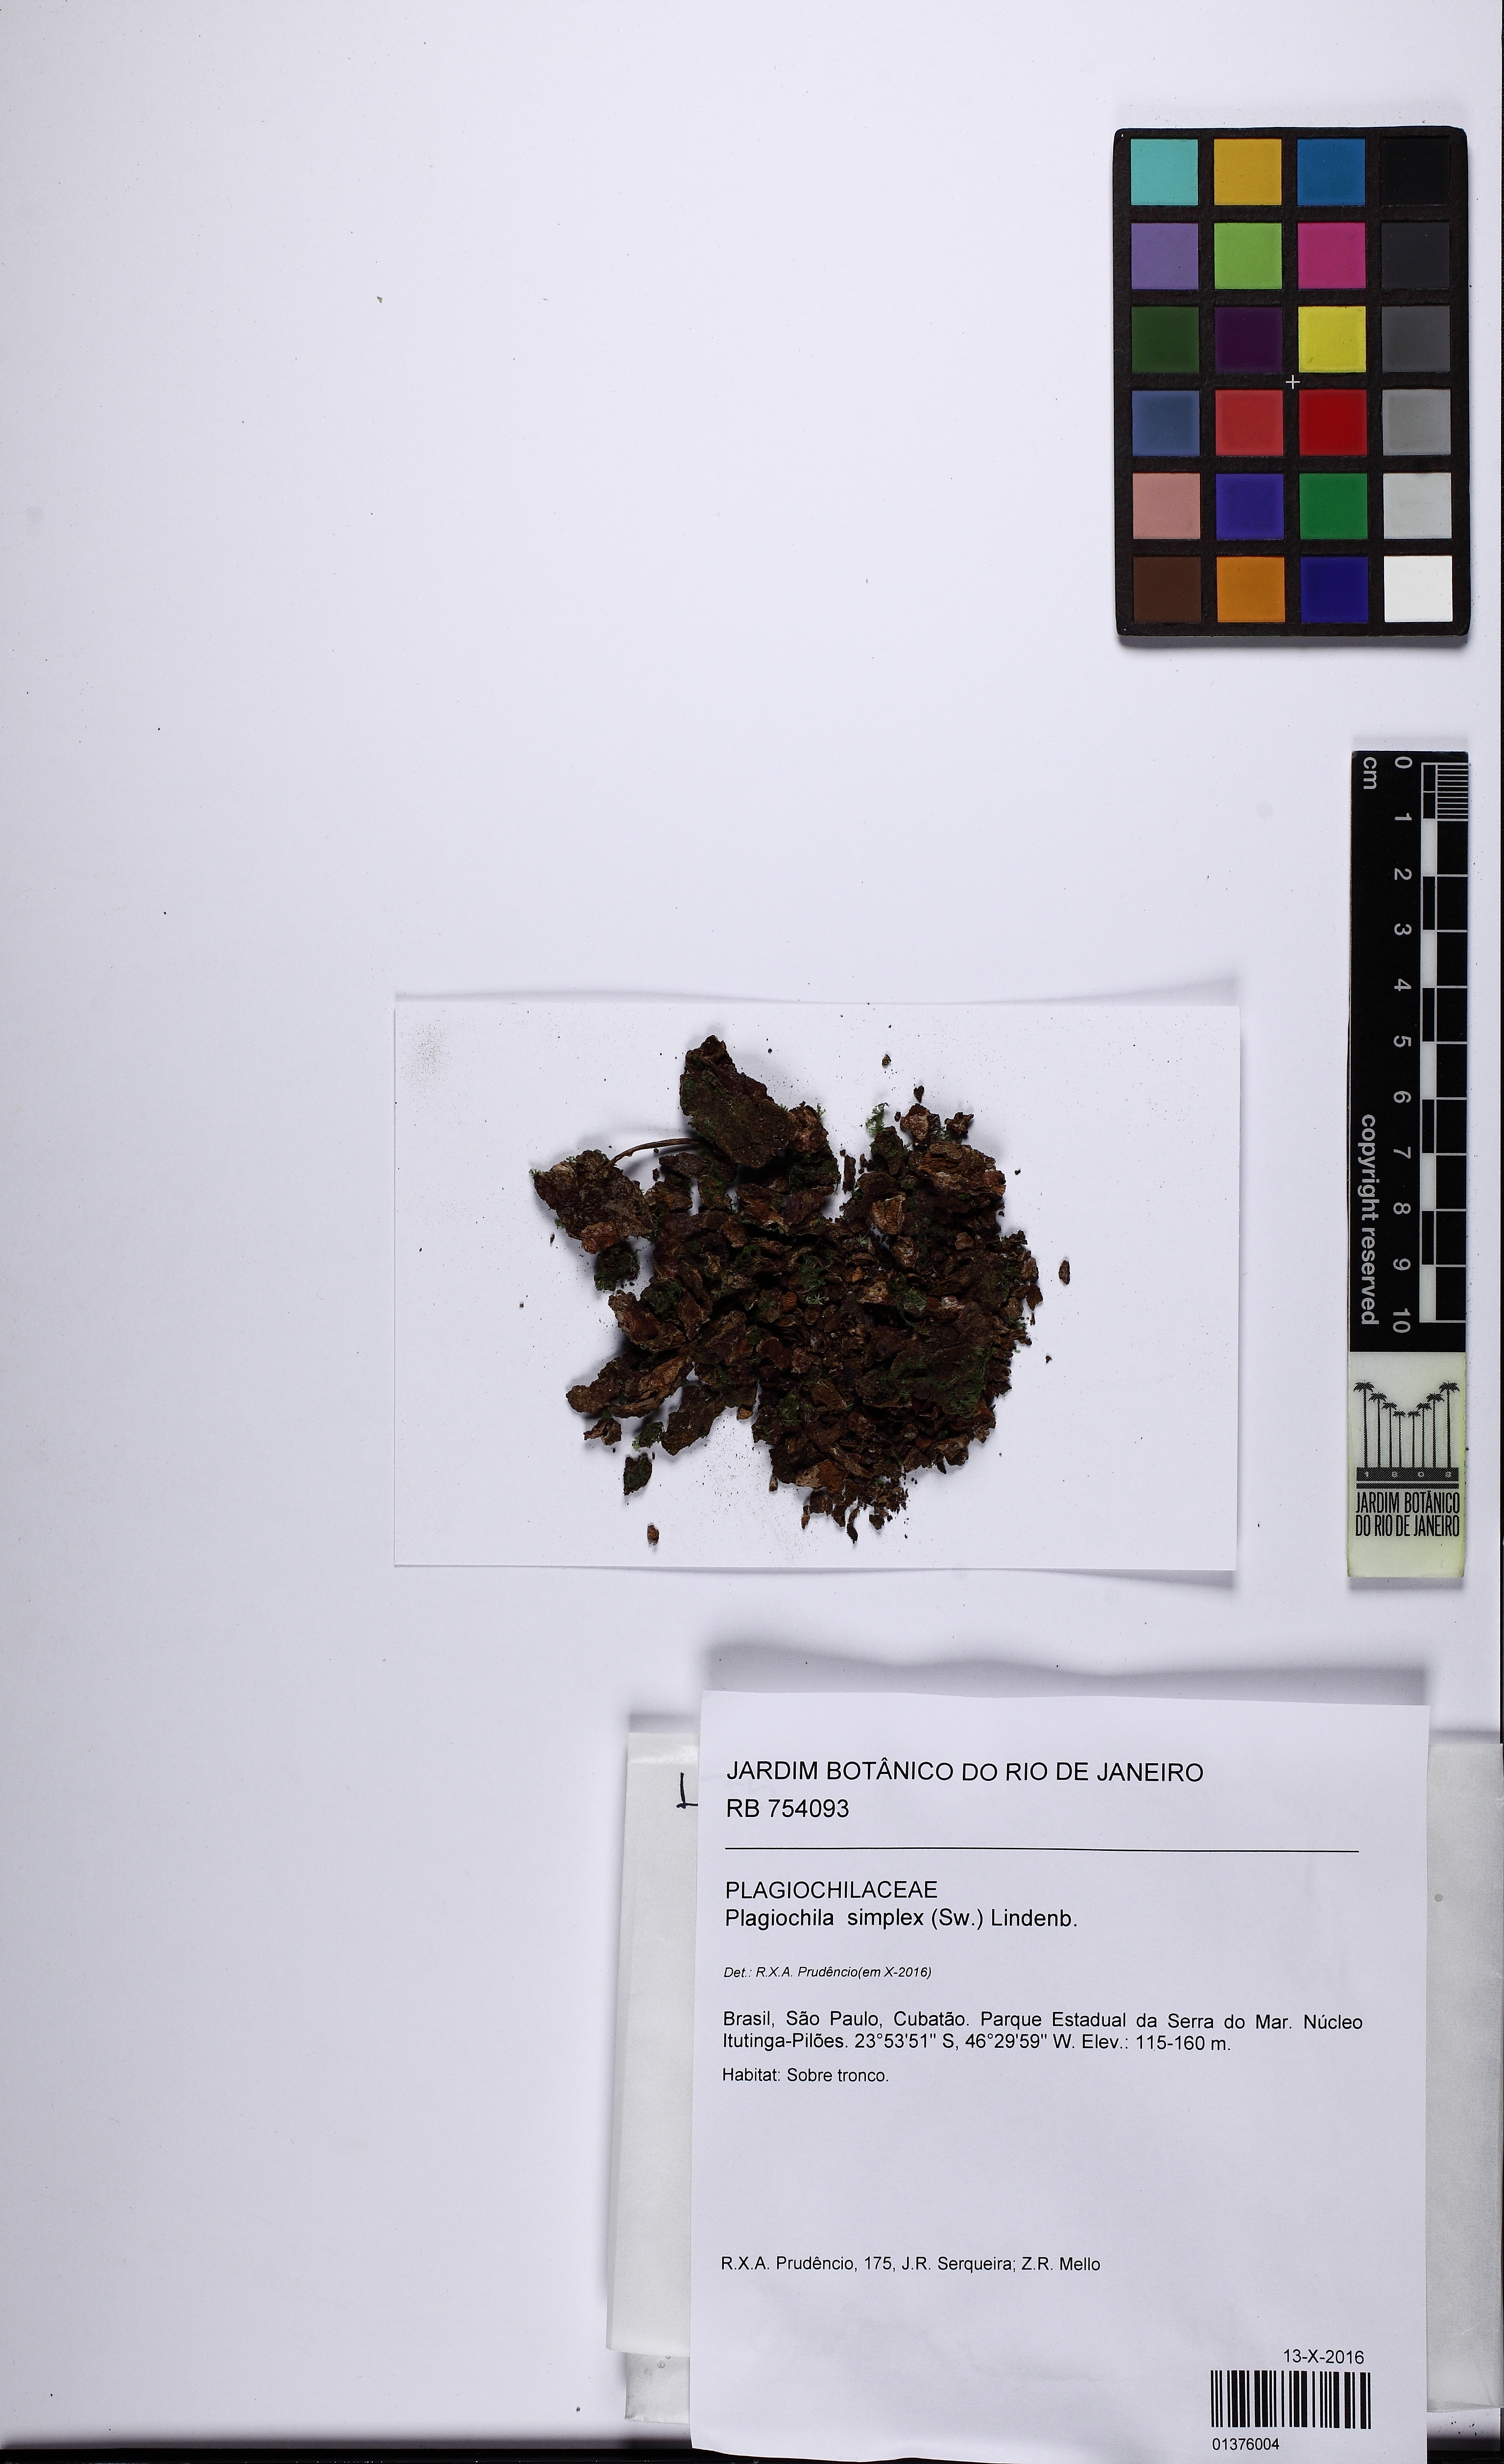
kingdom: Plantae
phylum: Marchantiophyta
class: Jungermanniopsida
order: Jungermanniales
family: Plagiochilaceae
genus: Plagiochila
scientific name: Plagiochila simplex
